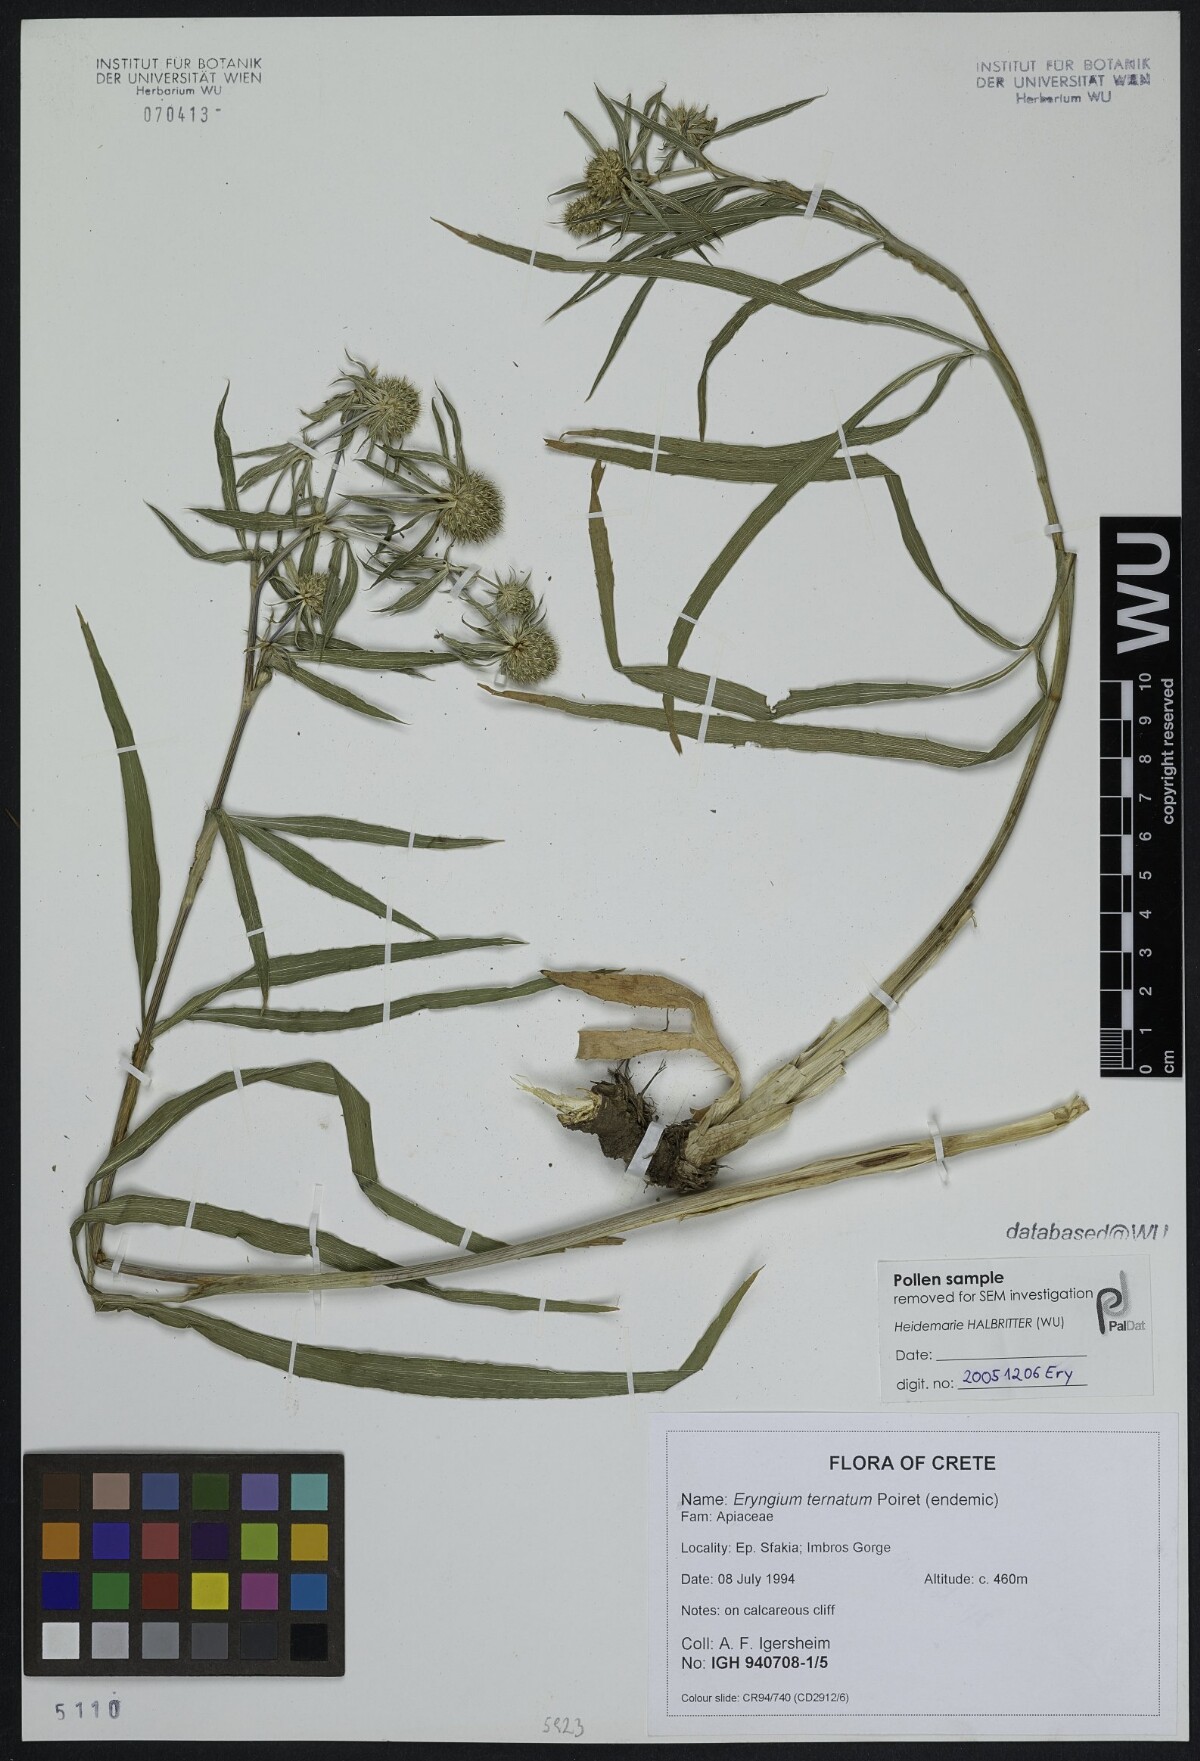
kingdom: Plantae
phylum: Tracheophyta
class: Magnoliopsida
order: Apiales
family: Apiaceae
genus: Eryngium
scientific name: Eryngium ternatum
